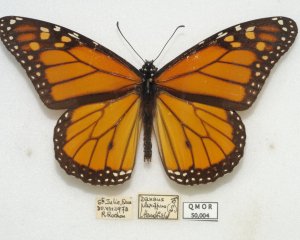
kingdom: Animalia
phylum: Arthropoda
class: Insecta
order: Lepidoptera
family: Nymphalidae
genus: Danaus
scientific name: Danaus plexippus
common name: Monarch
